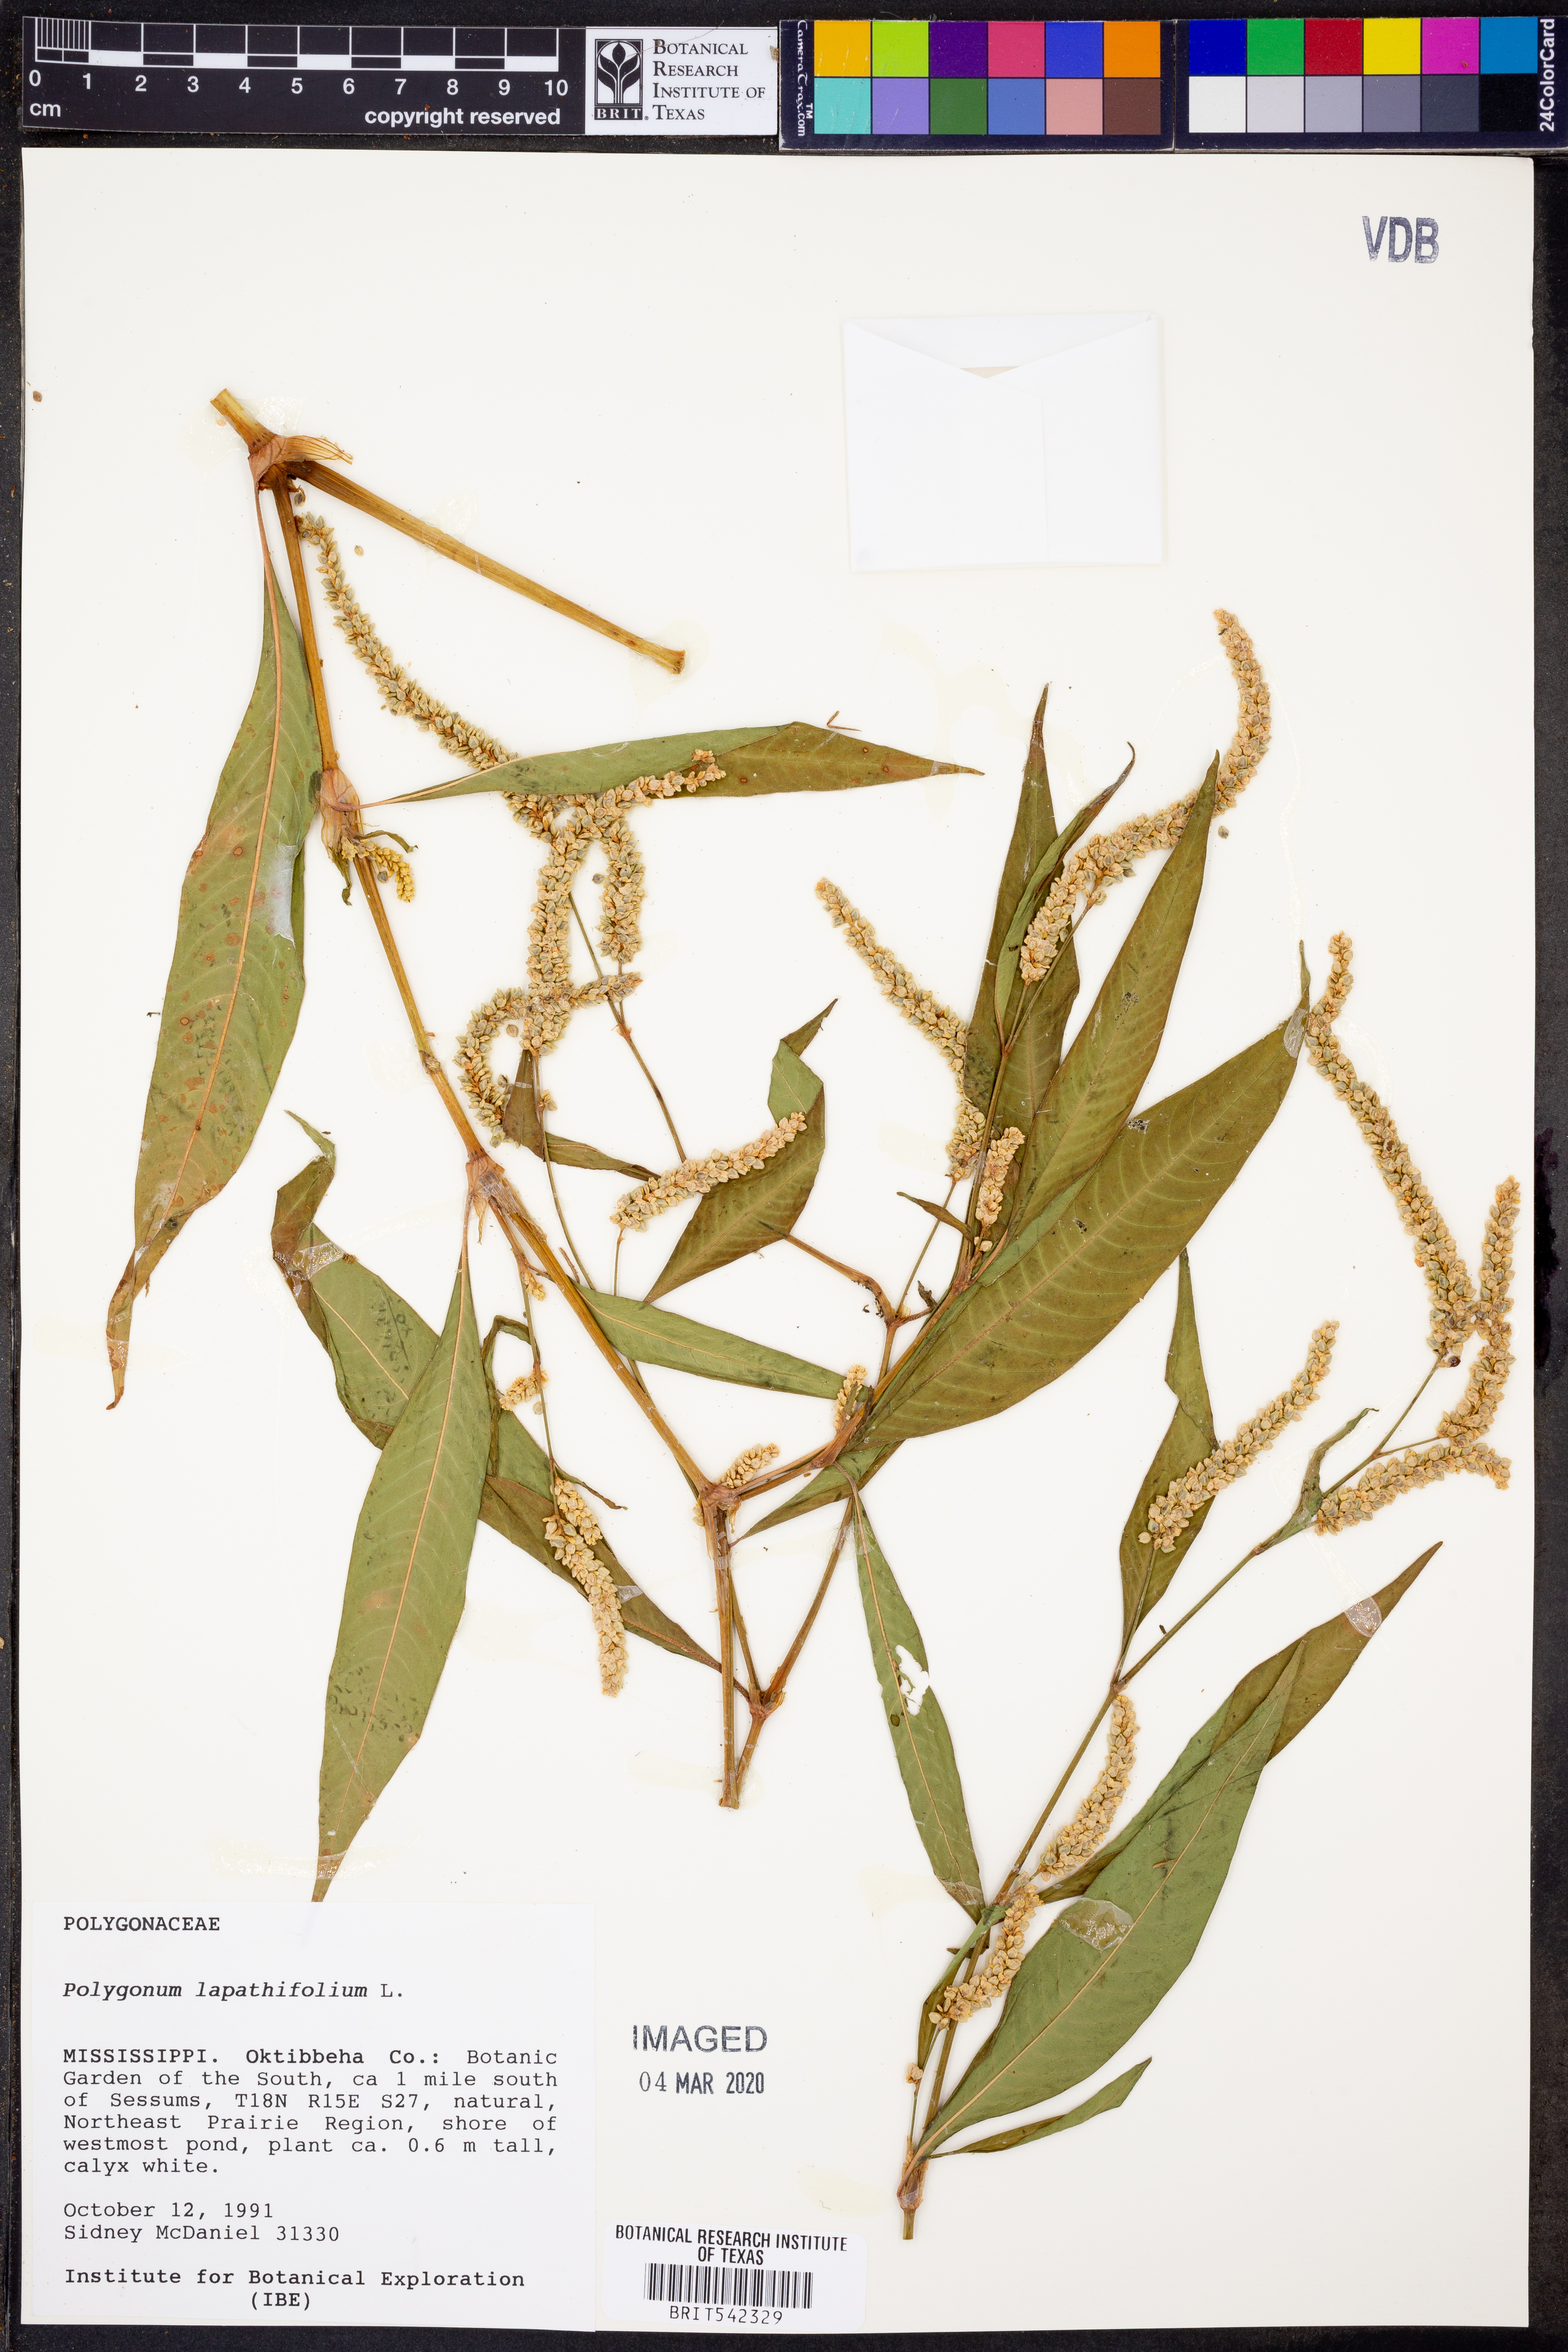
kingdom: Plantae
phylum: Tracheophyta
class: Magnoliopsida
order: Caryophyllales
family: Polygonaceae
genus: Persicaria
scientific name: Persicaria lapathifolia
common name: Curlytop knotweed
